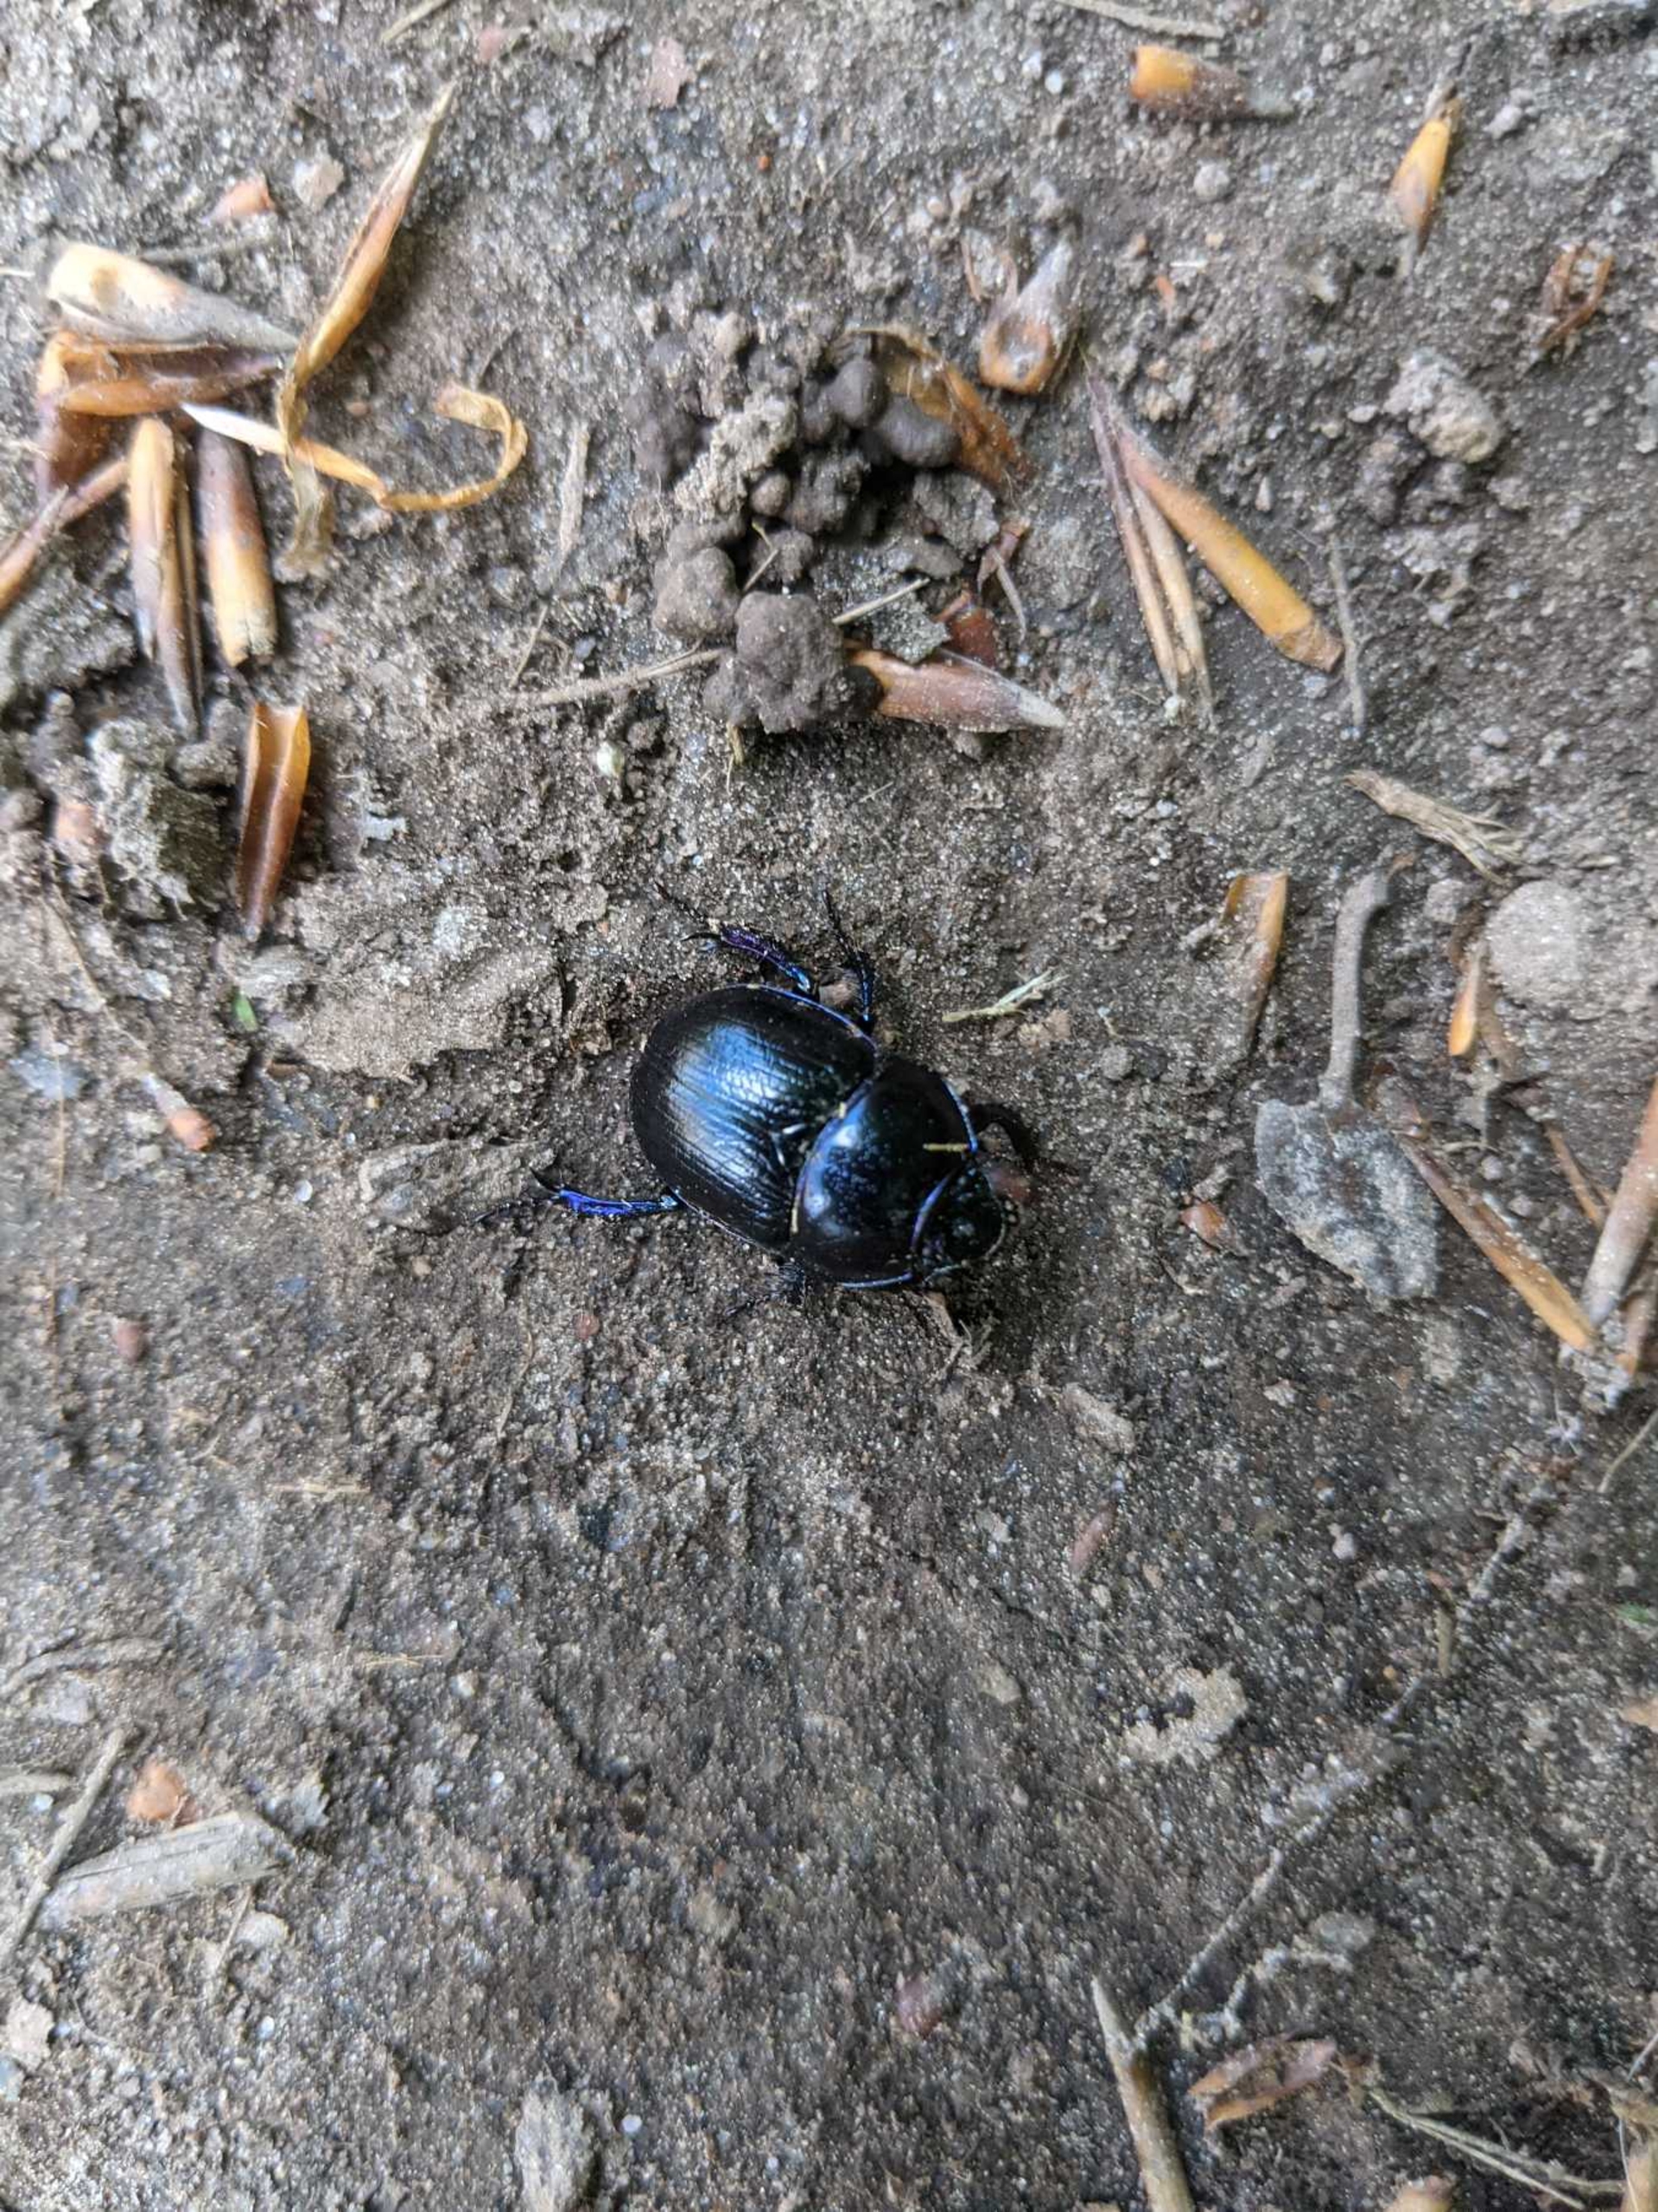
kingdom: Animalia
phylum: Arthropoda
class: Insecta
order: Coleoptera
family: Geotrupidae
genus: Anoplotrupes
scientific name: Anoplotrupes stercorosus
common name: Skovskarnbasse
